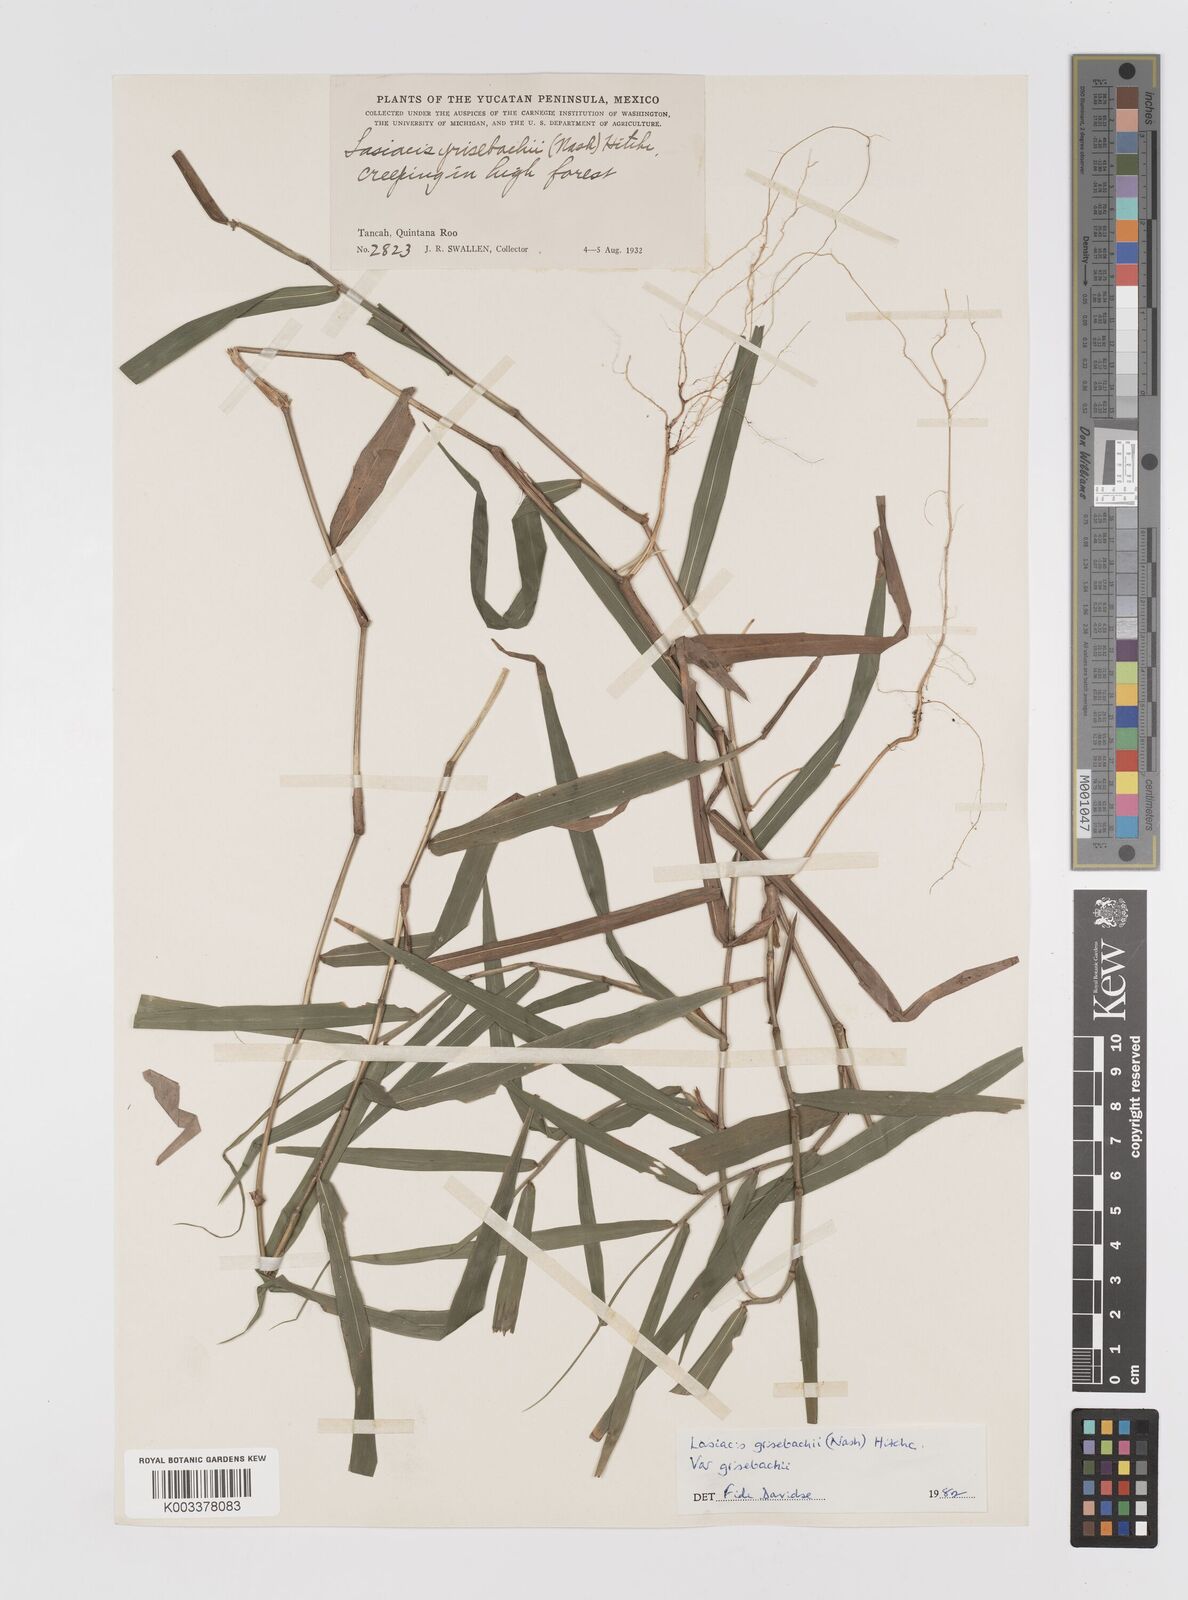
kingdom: Plantae
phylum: Tracheophyta
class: Liliopsida
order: Poales
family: Poaceae
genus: Lasiacis
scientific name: Lasiacis grisebachii
